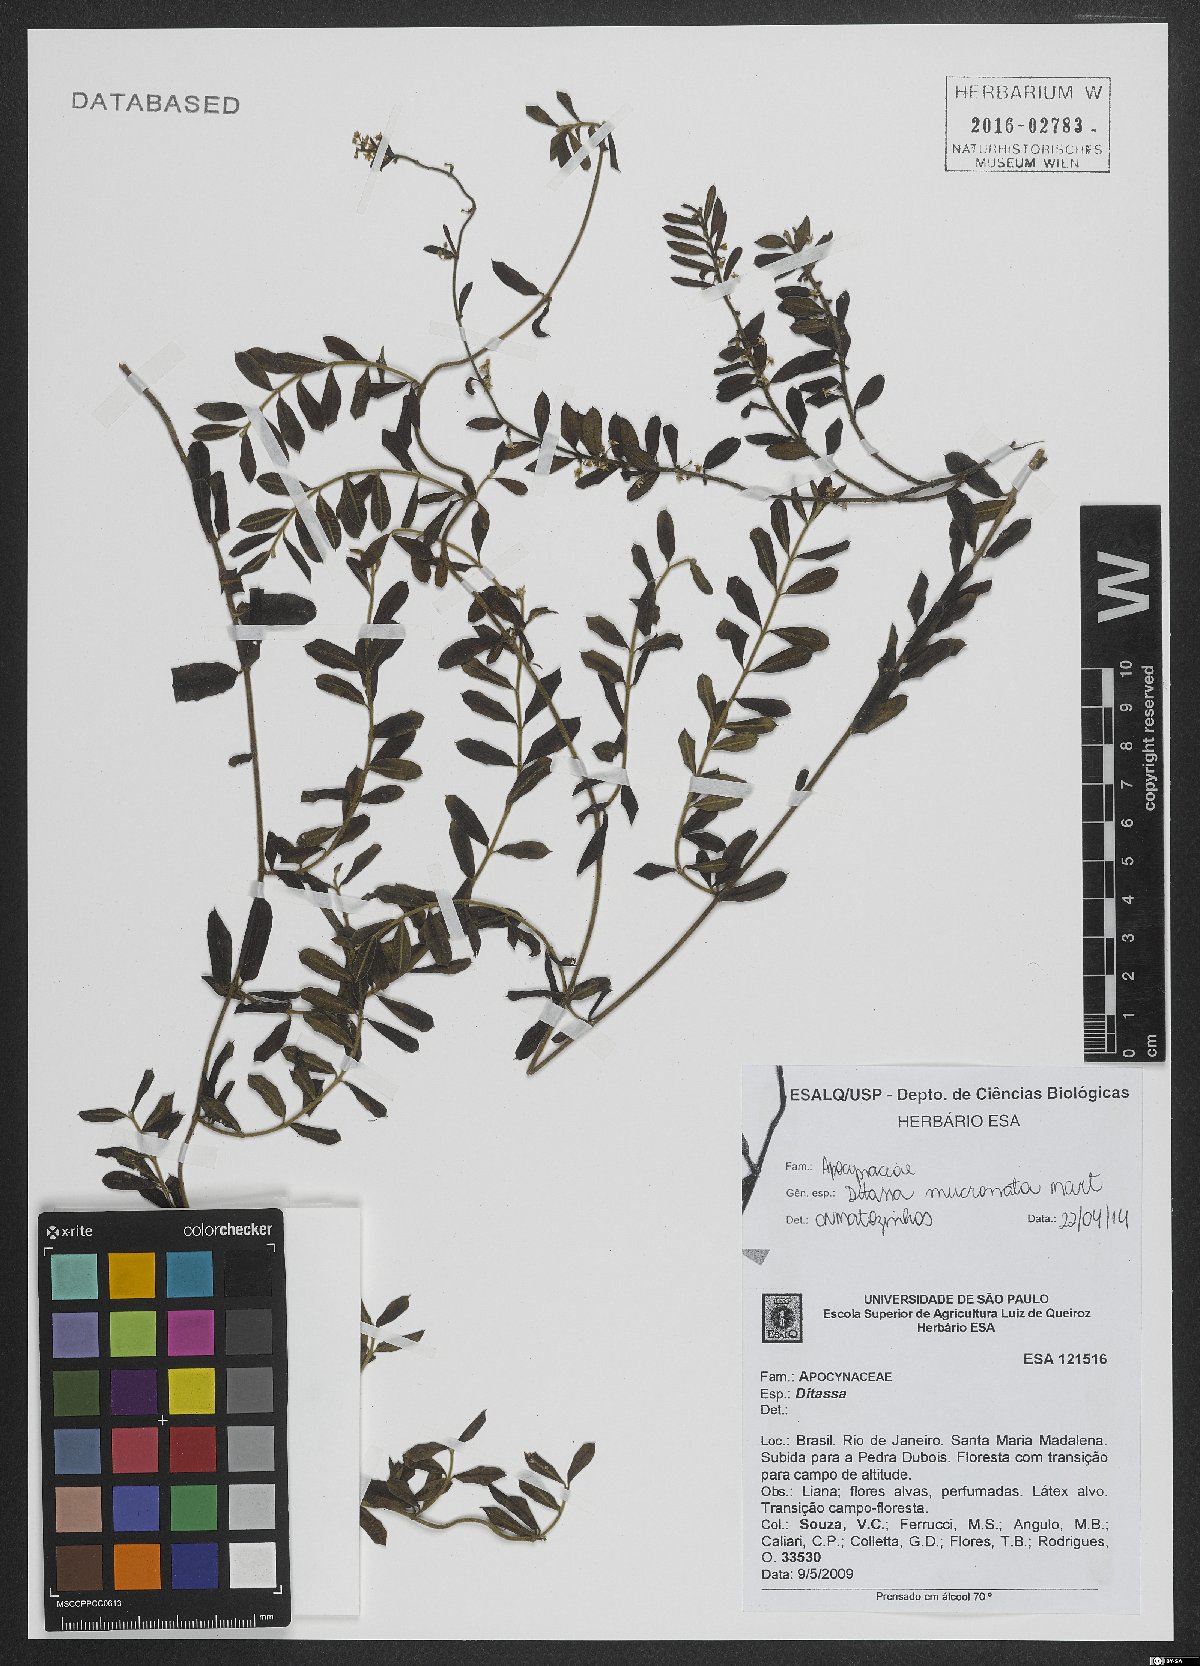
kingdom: Plantae
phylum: Tracheophyta
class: Magnoliopsida
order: Gentianales
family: Apocynaceae
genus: Ditassa
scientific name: Ditassa mucronata
